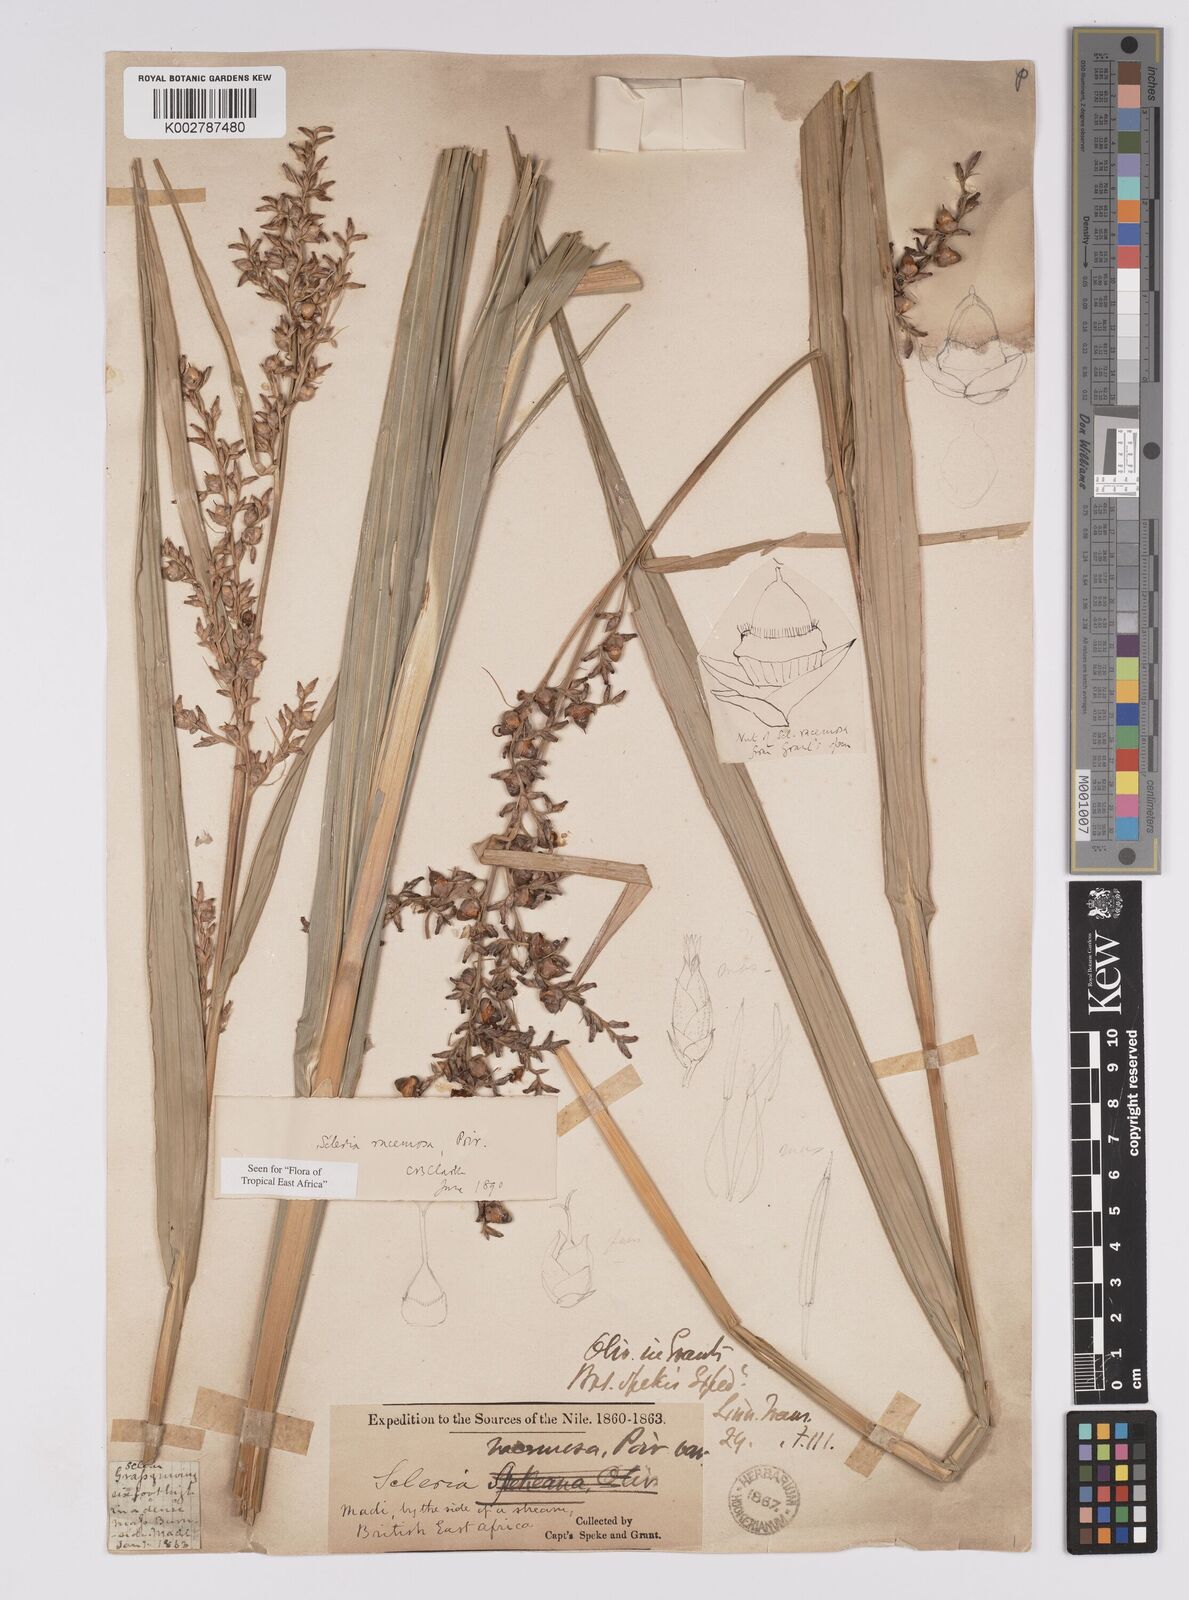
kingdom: Plantae
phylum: Tracheophyta
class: Liliopsida
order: Poales
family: Cyperaceae
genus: Scleria
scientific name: Scleria racemosa
